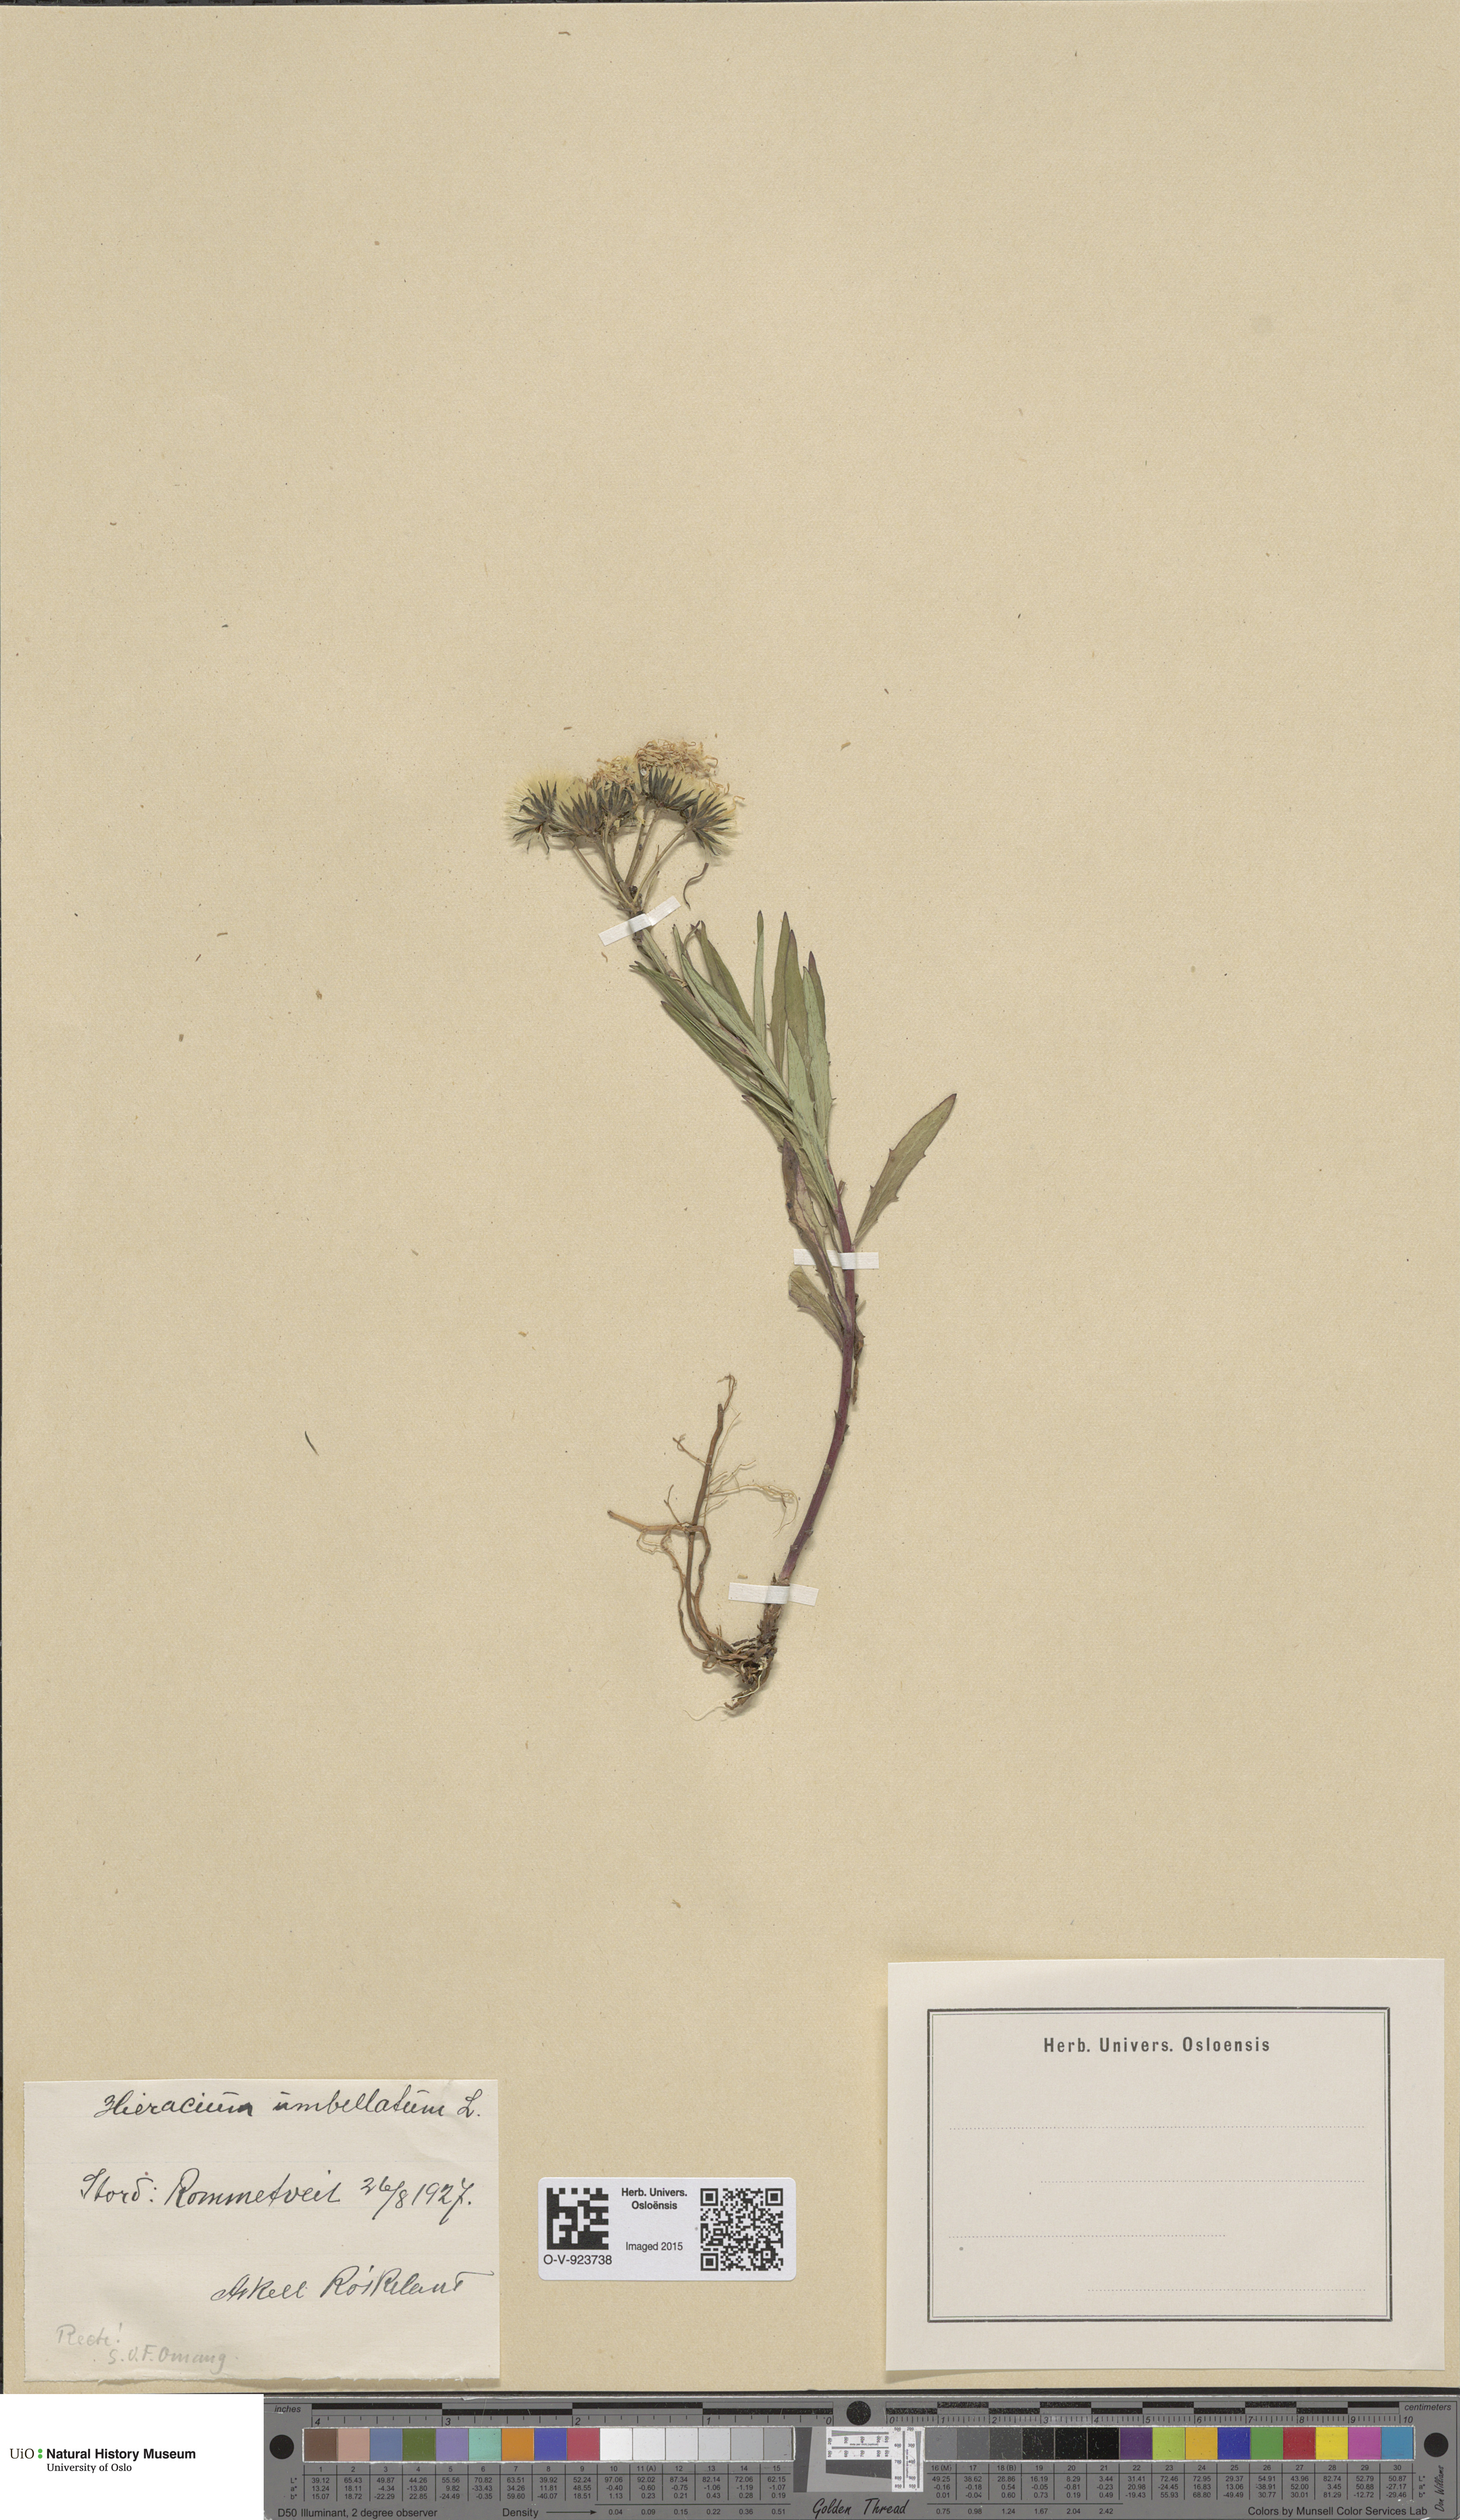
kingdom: Plantae
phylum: Tracheophyta
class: Magnoliopsida
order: Asterales
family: Asteraceae
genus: Hieracium
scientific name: Hieracium umbellatum
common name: Northern hawkweed
